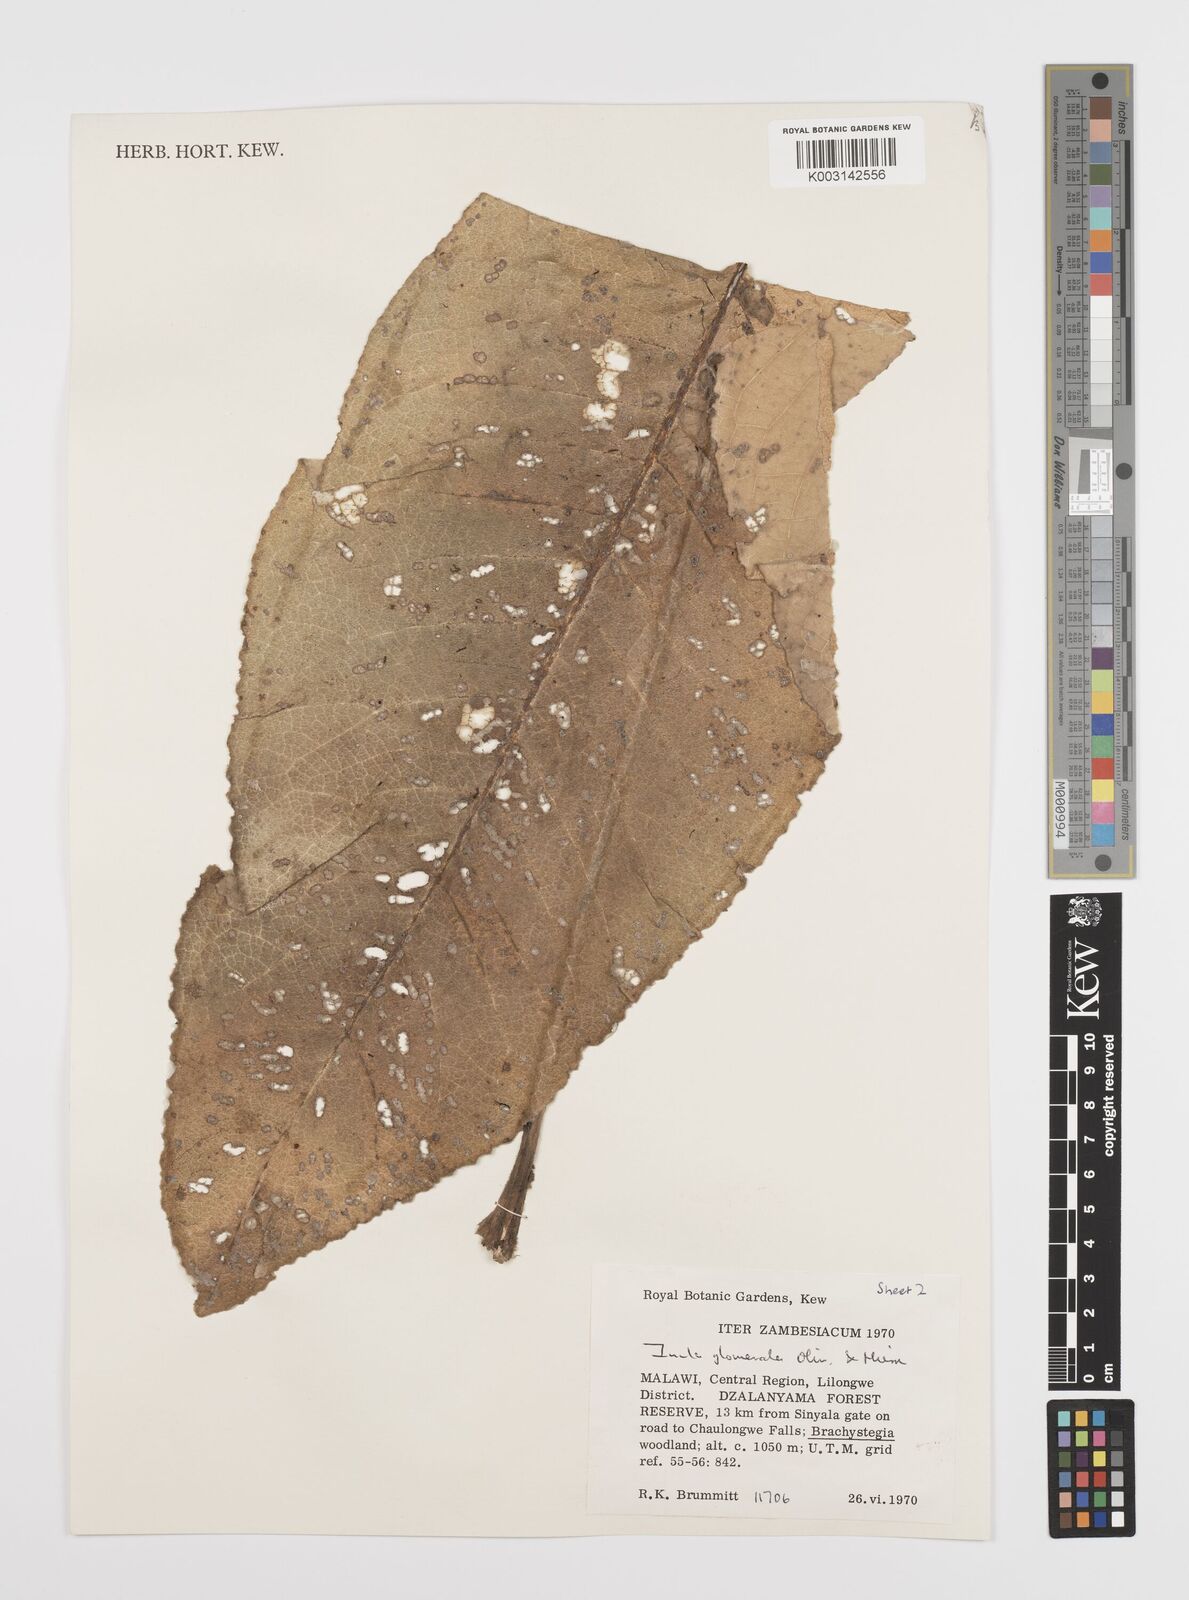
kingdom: Plantae
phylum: Tracheophyta
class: Magnoliopsida
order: Asterales
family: Asteraceae
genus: Inula
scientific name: Inula glomerata
